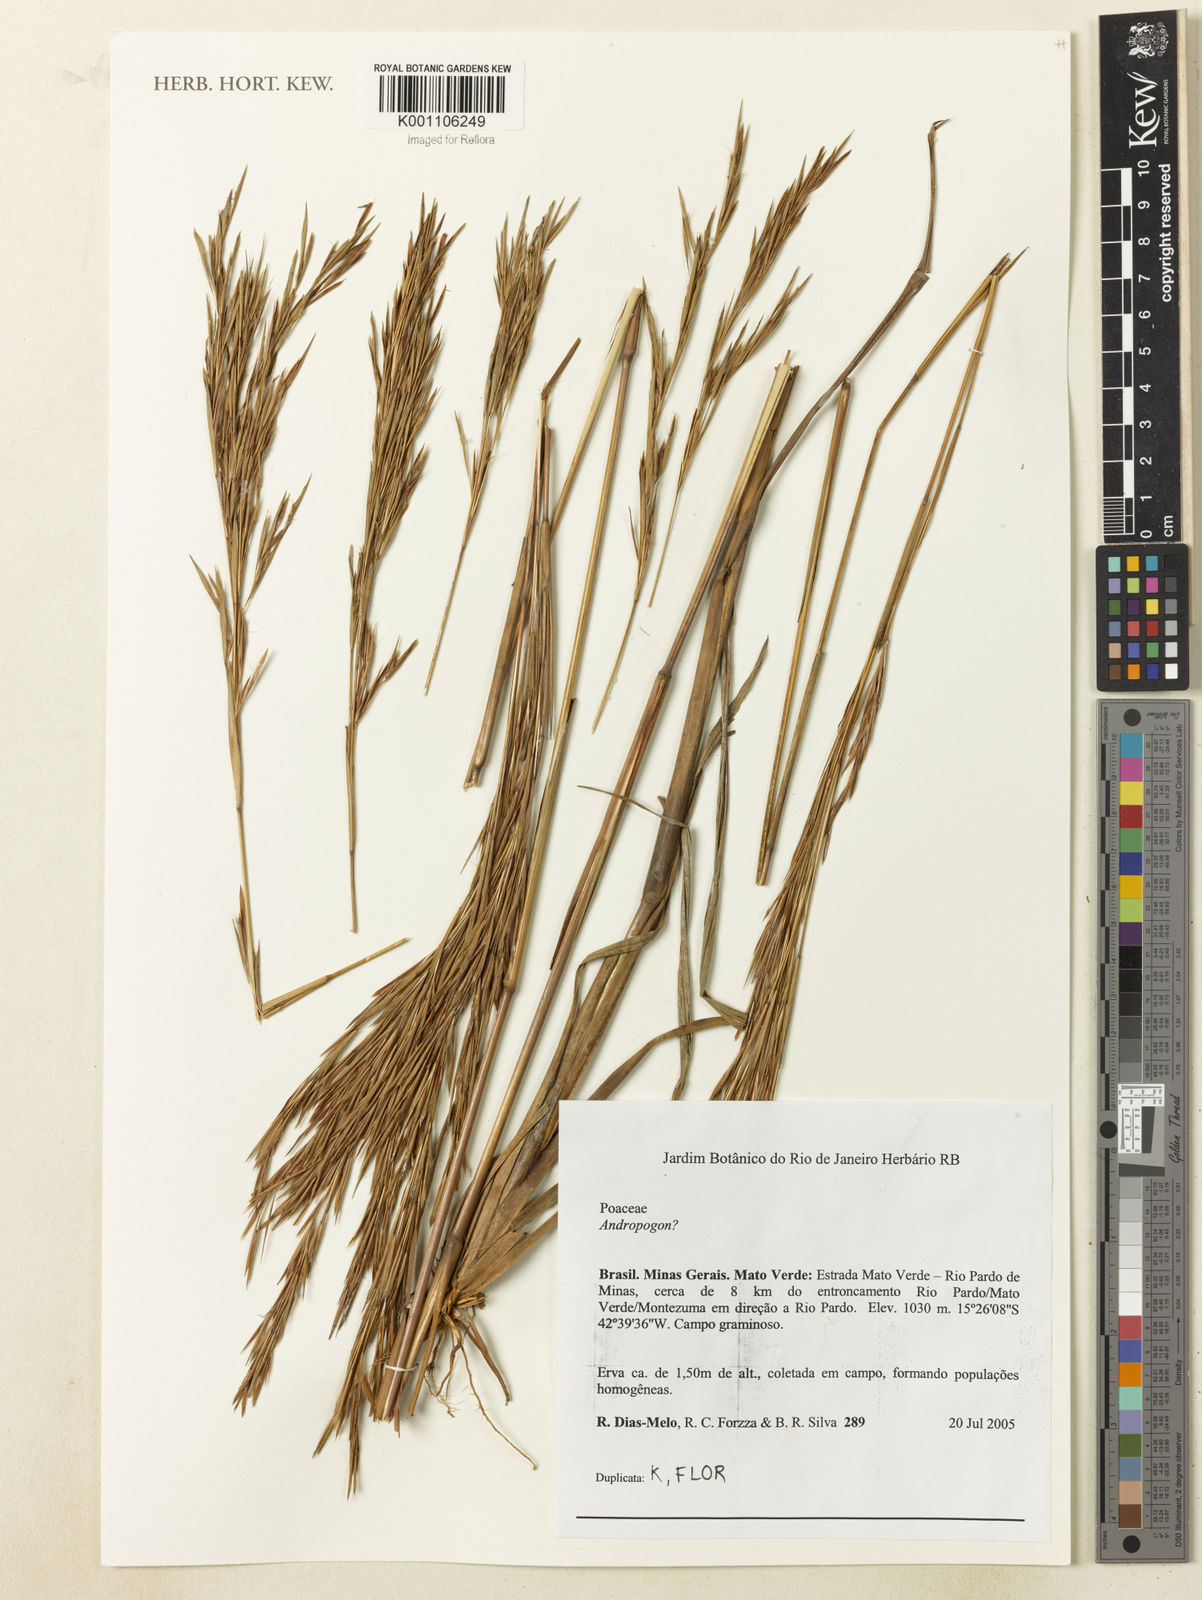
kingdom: Plantae
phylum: Tracheophyta
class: Liliopsida
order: Poales
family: Poaceae
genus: Andropogon
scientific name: Andropogon
